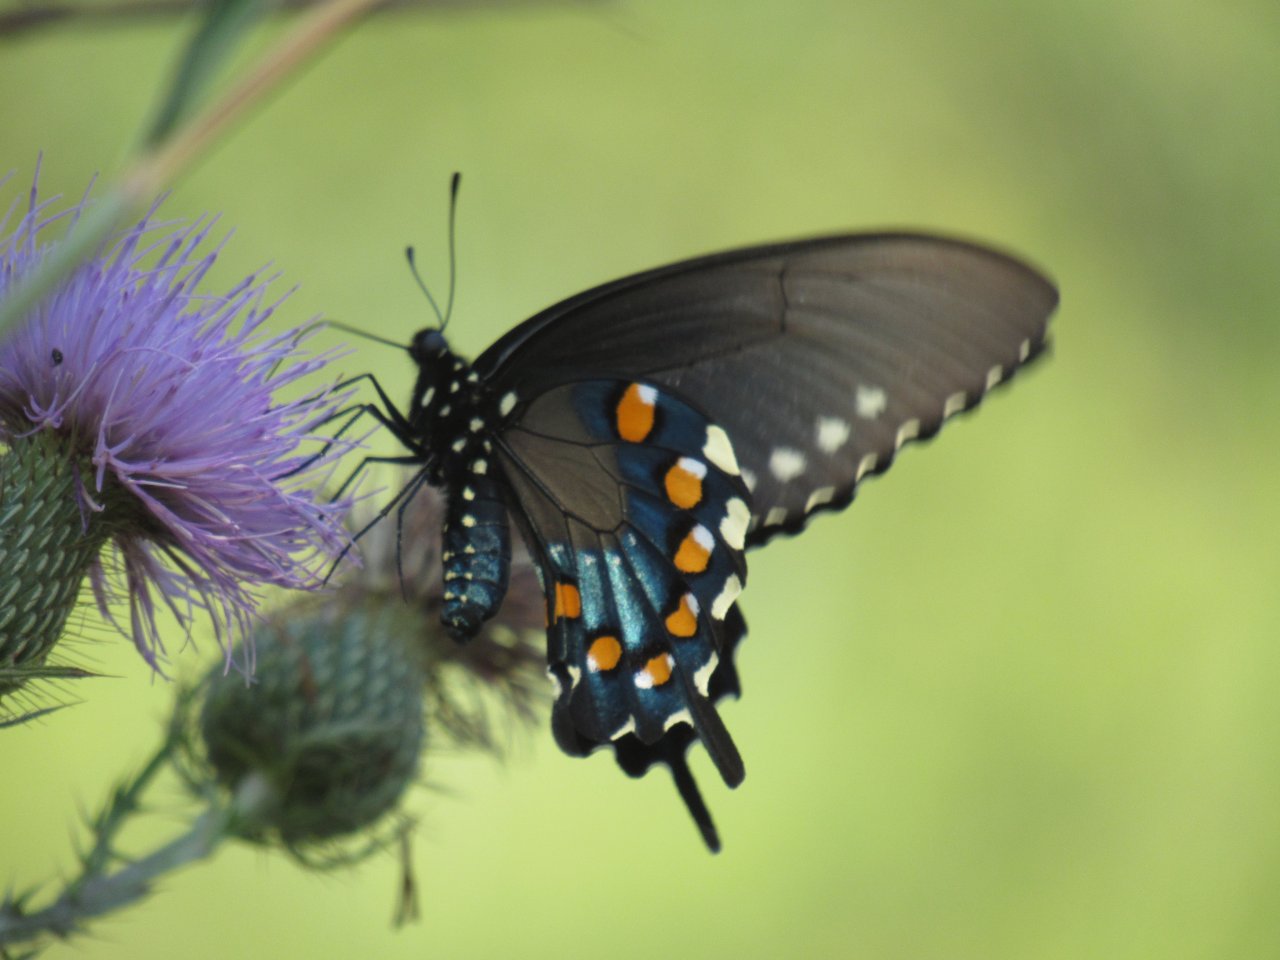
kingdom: Animalia
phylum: Arthropoda
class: Insecta
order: Lepidoptera
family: Papilionidae
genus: Battus
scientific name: Battus philenor
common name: Pipevine Swallowtail
